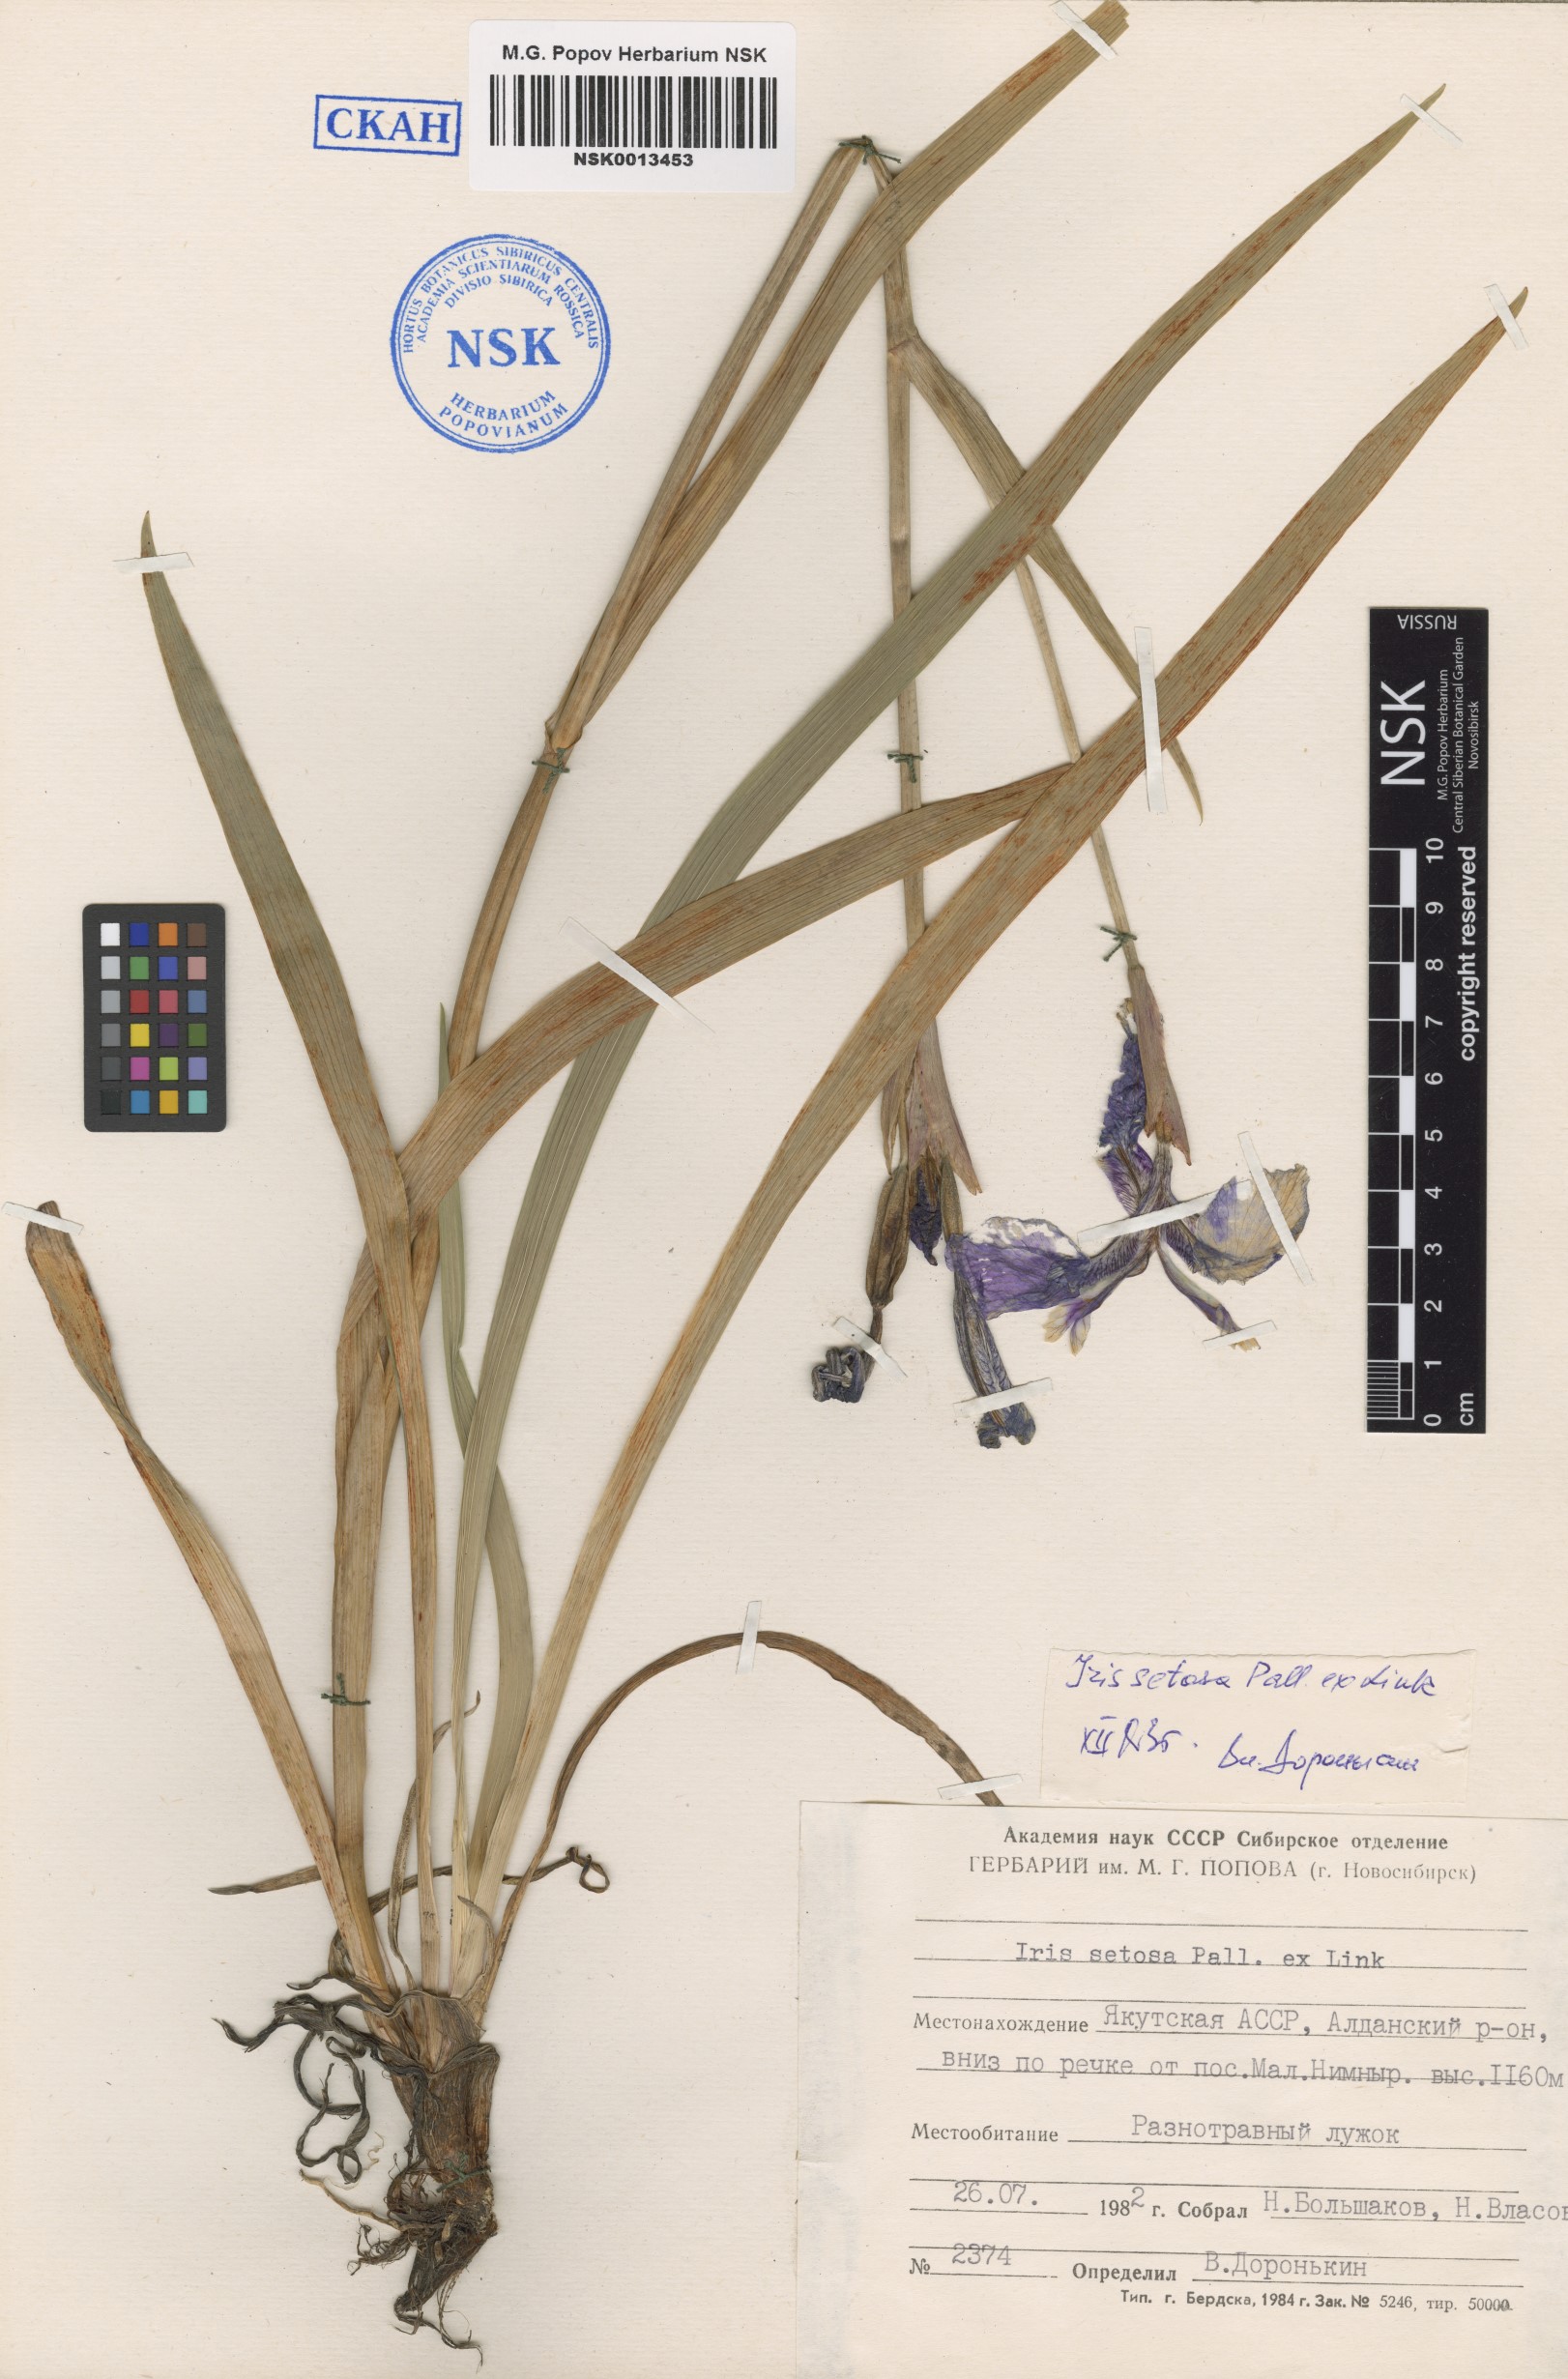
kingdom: Plantae
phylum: Tracheophyta
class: Liliopsida
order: Asparagales
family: Iridaceae
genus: Iris
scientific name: Iris setosa
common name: Arctic blue flag
